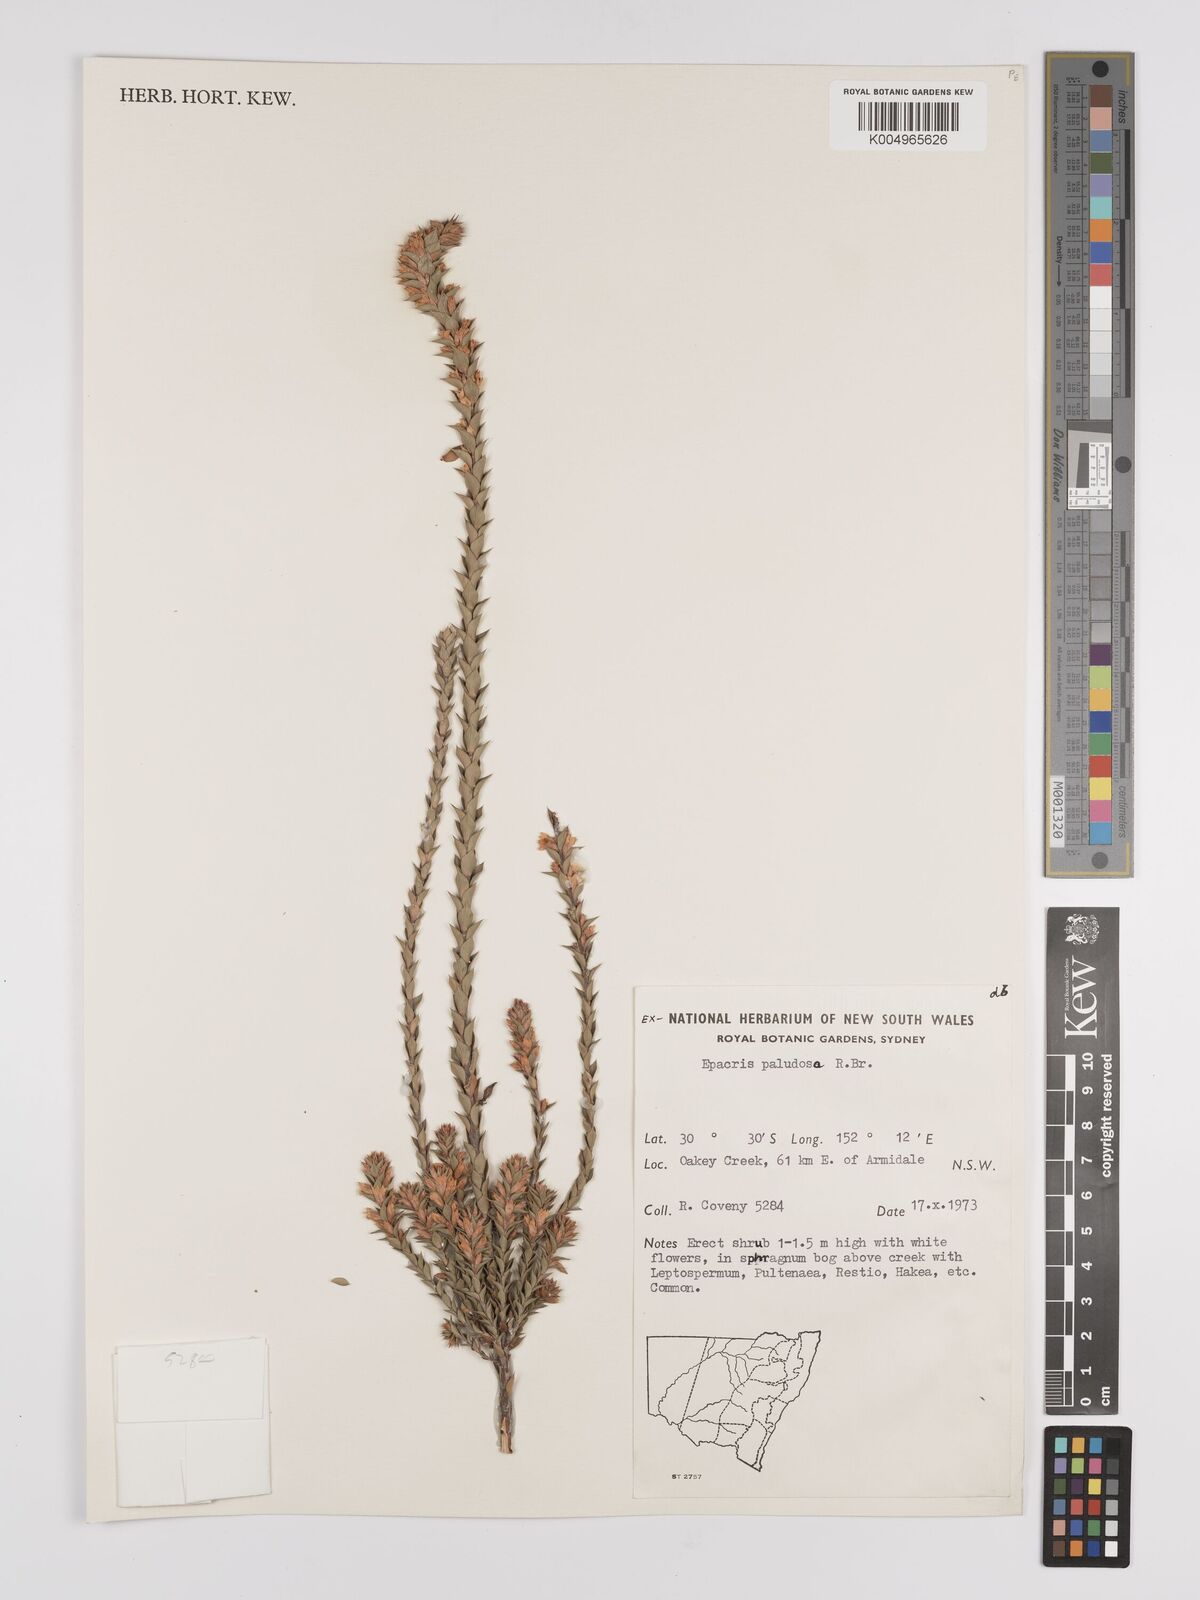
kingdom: Plantae
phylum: Tracheophyta
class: Magnoliopsida
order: Ericales
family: Ericaceae
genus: Epacris
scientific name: Epacris paludosa
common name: Swamp-heath
